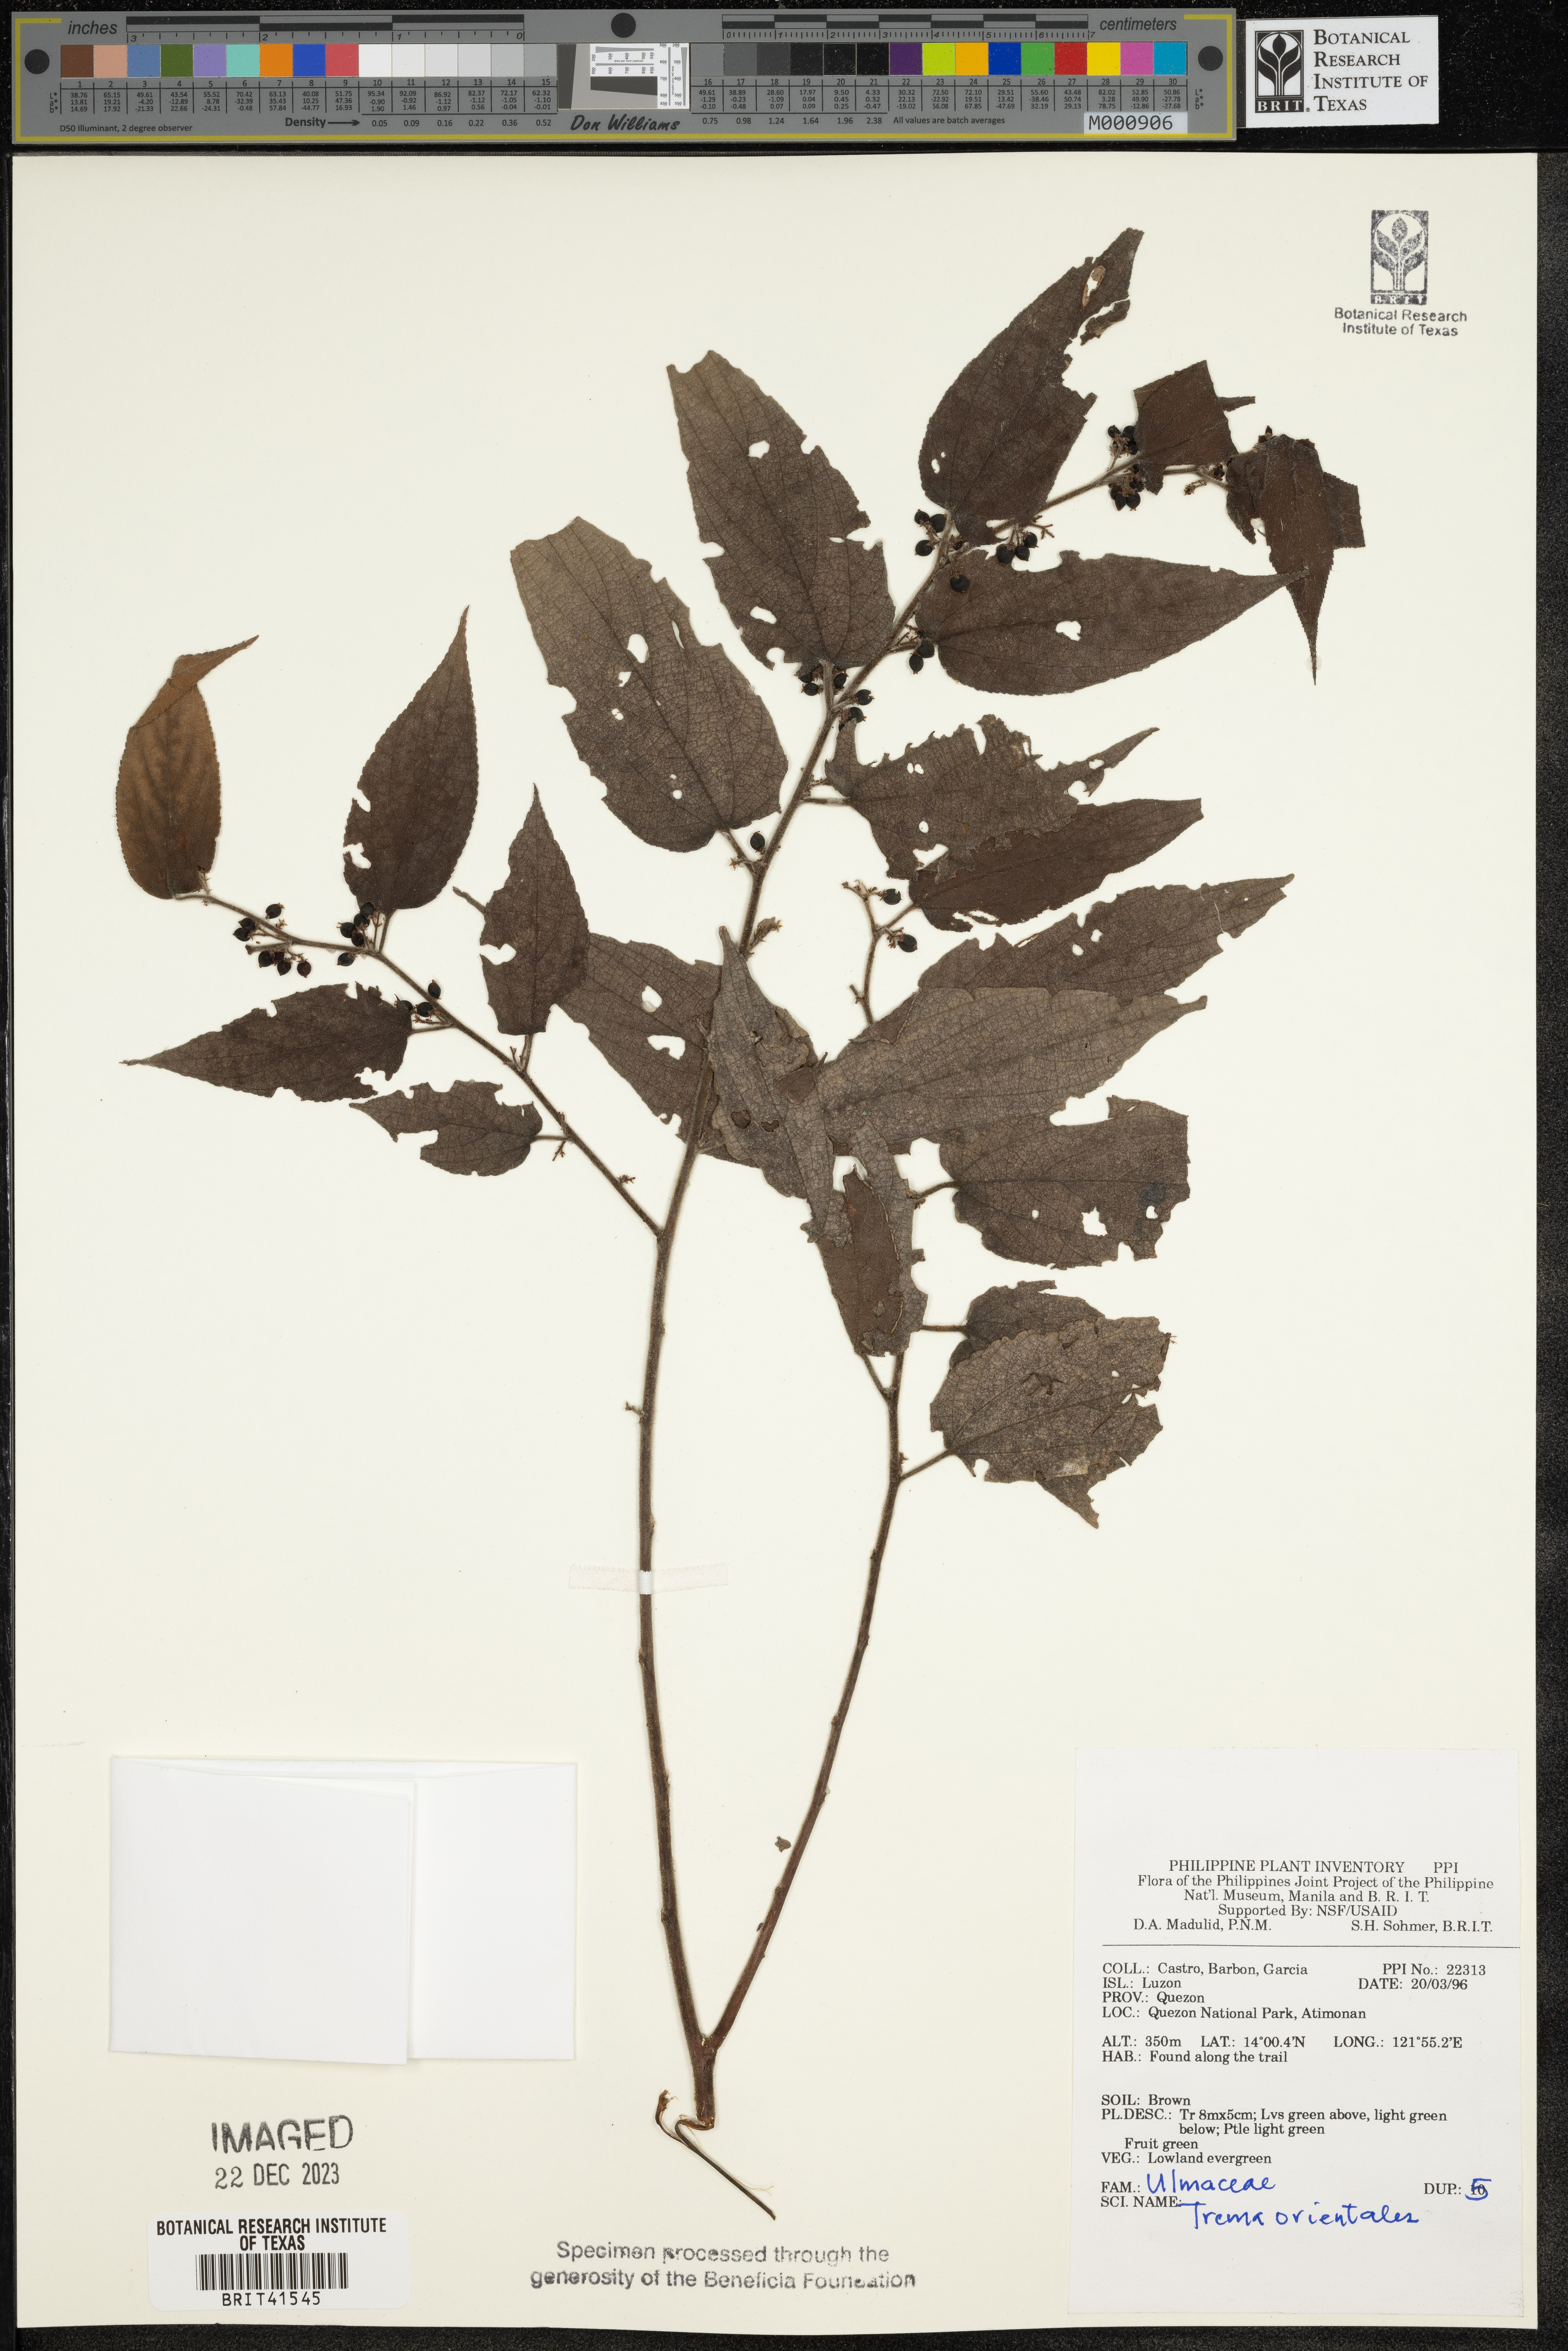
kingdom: Plantae
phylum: Tracheophyta
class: Magnoliopsida
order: Rosales
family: Cannabaceae
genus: Trema
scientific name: Trema orientale
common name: Indian charcoal tree
